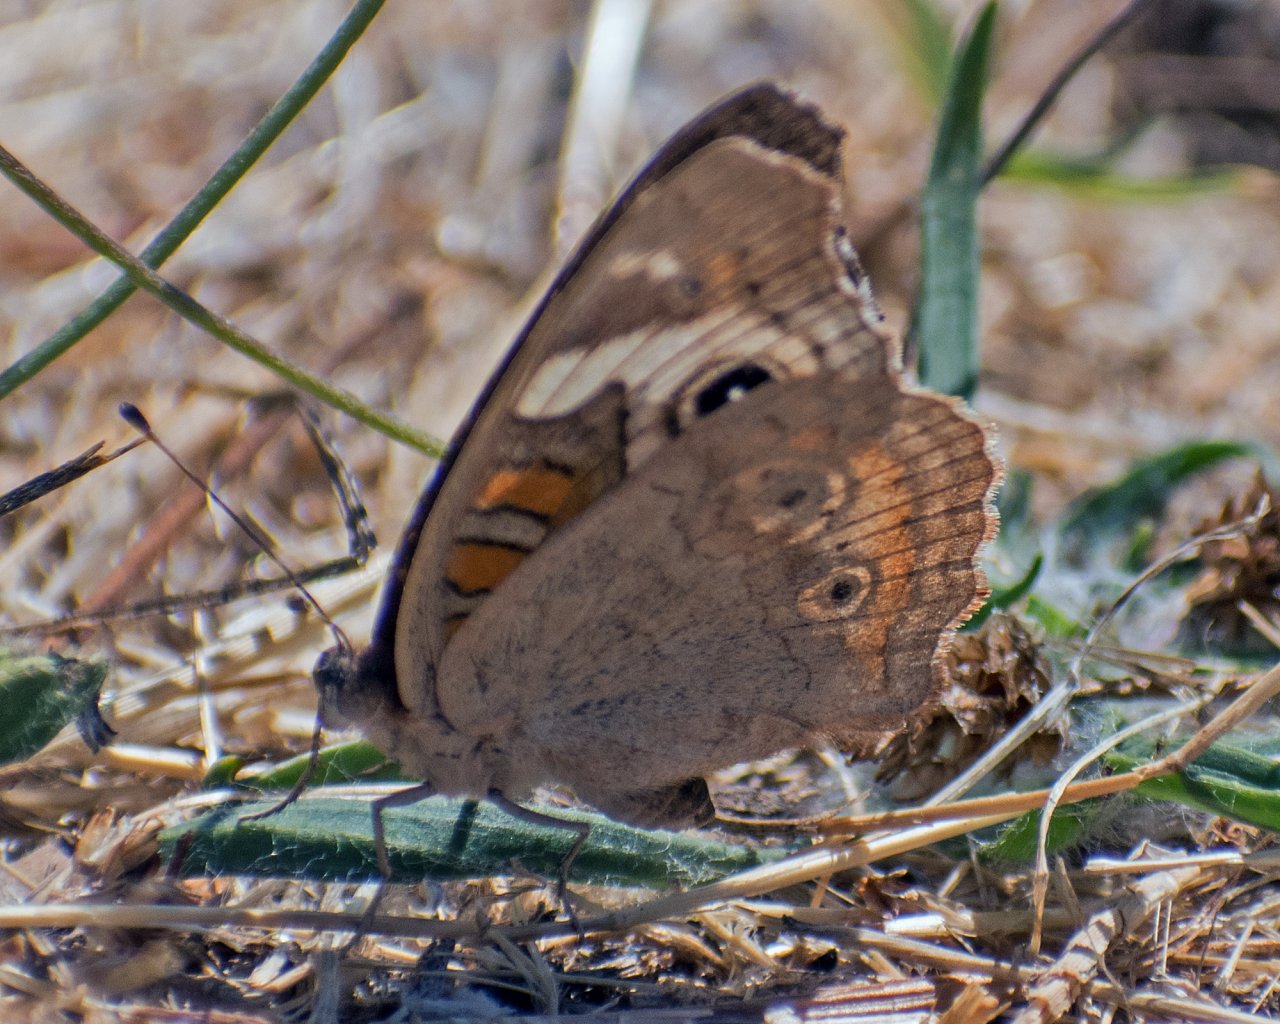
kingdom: Animalia
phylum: Arthropoda
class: Insecta
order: Lepidoptera
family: Nymphalidae
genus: Junonia
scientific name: Junonia coenia
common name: Common Buckeye
